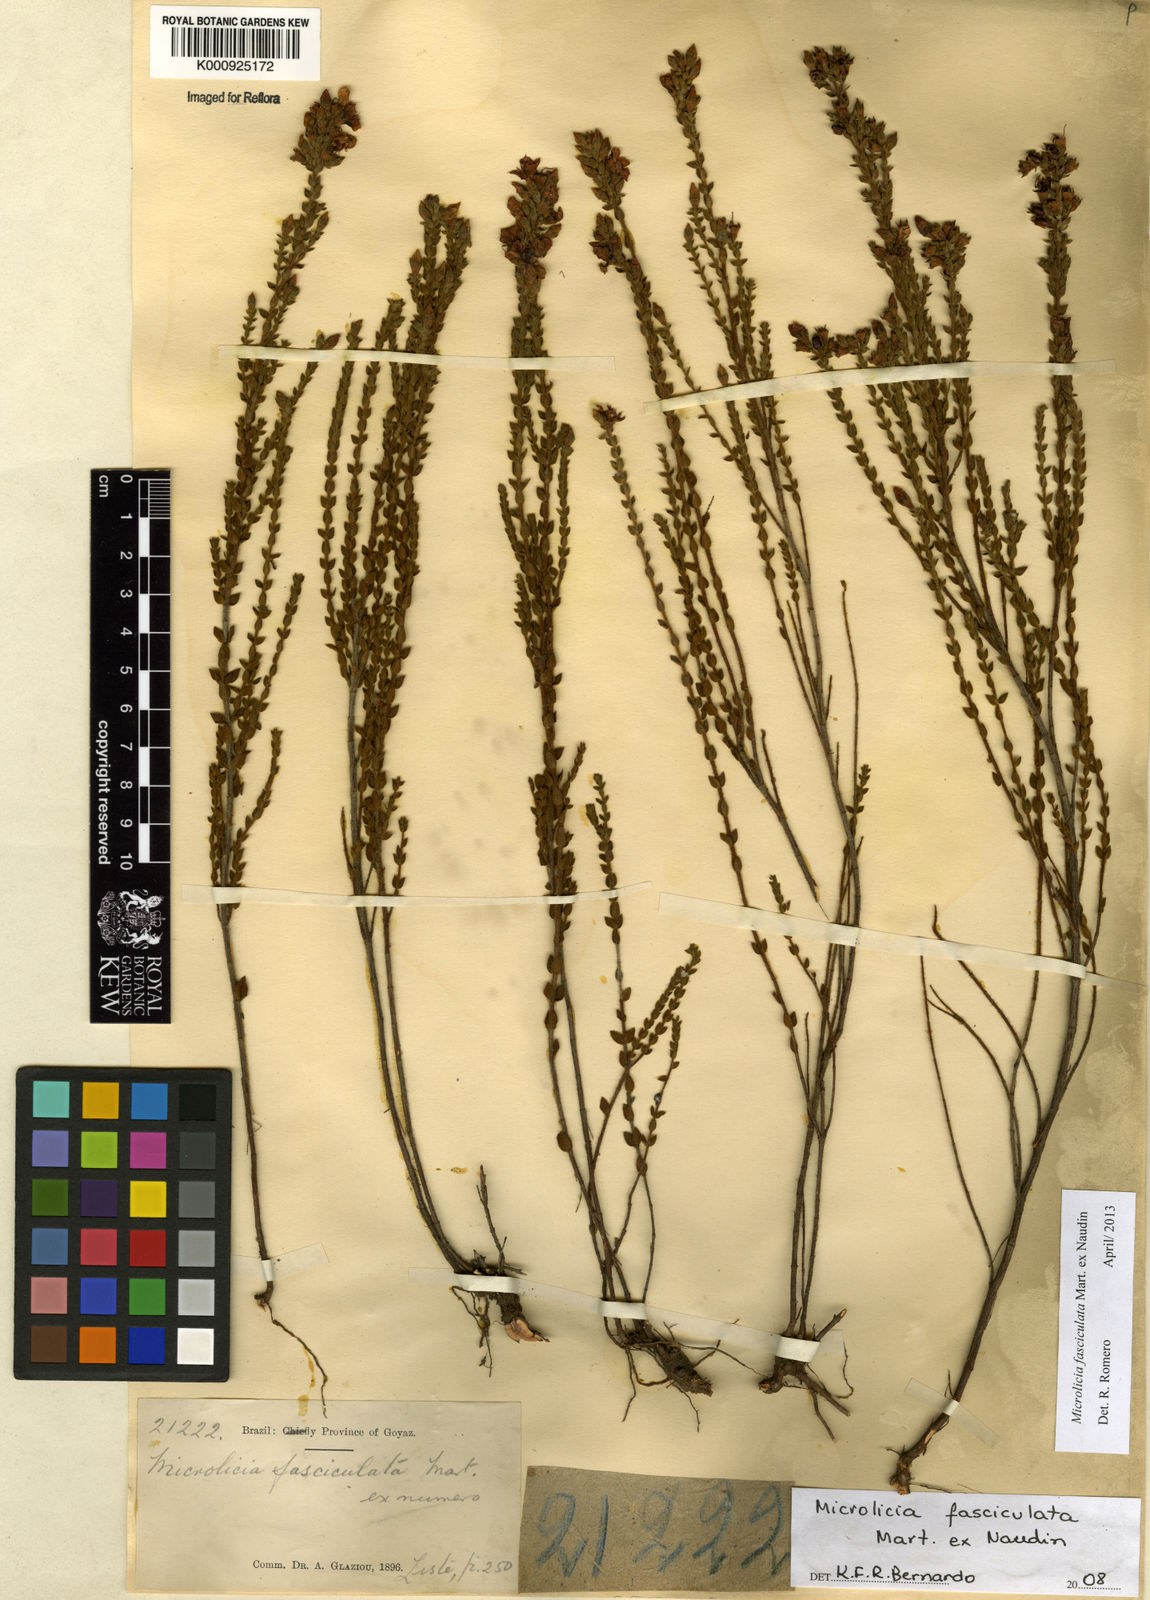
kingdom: Plantae
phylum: Tracheophyta
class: Magnoliopsida
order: Myrtales
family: Melastomataceae
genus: Microlicia
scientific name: Microlicia fasciculata
